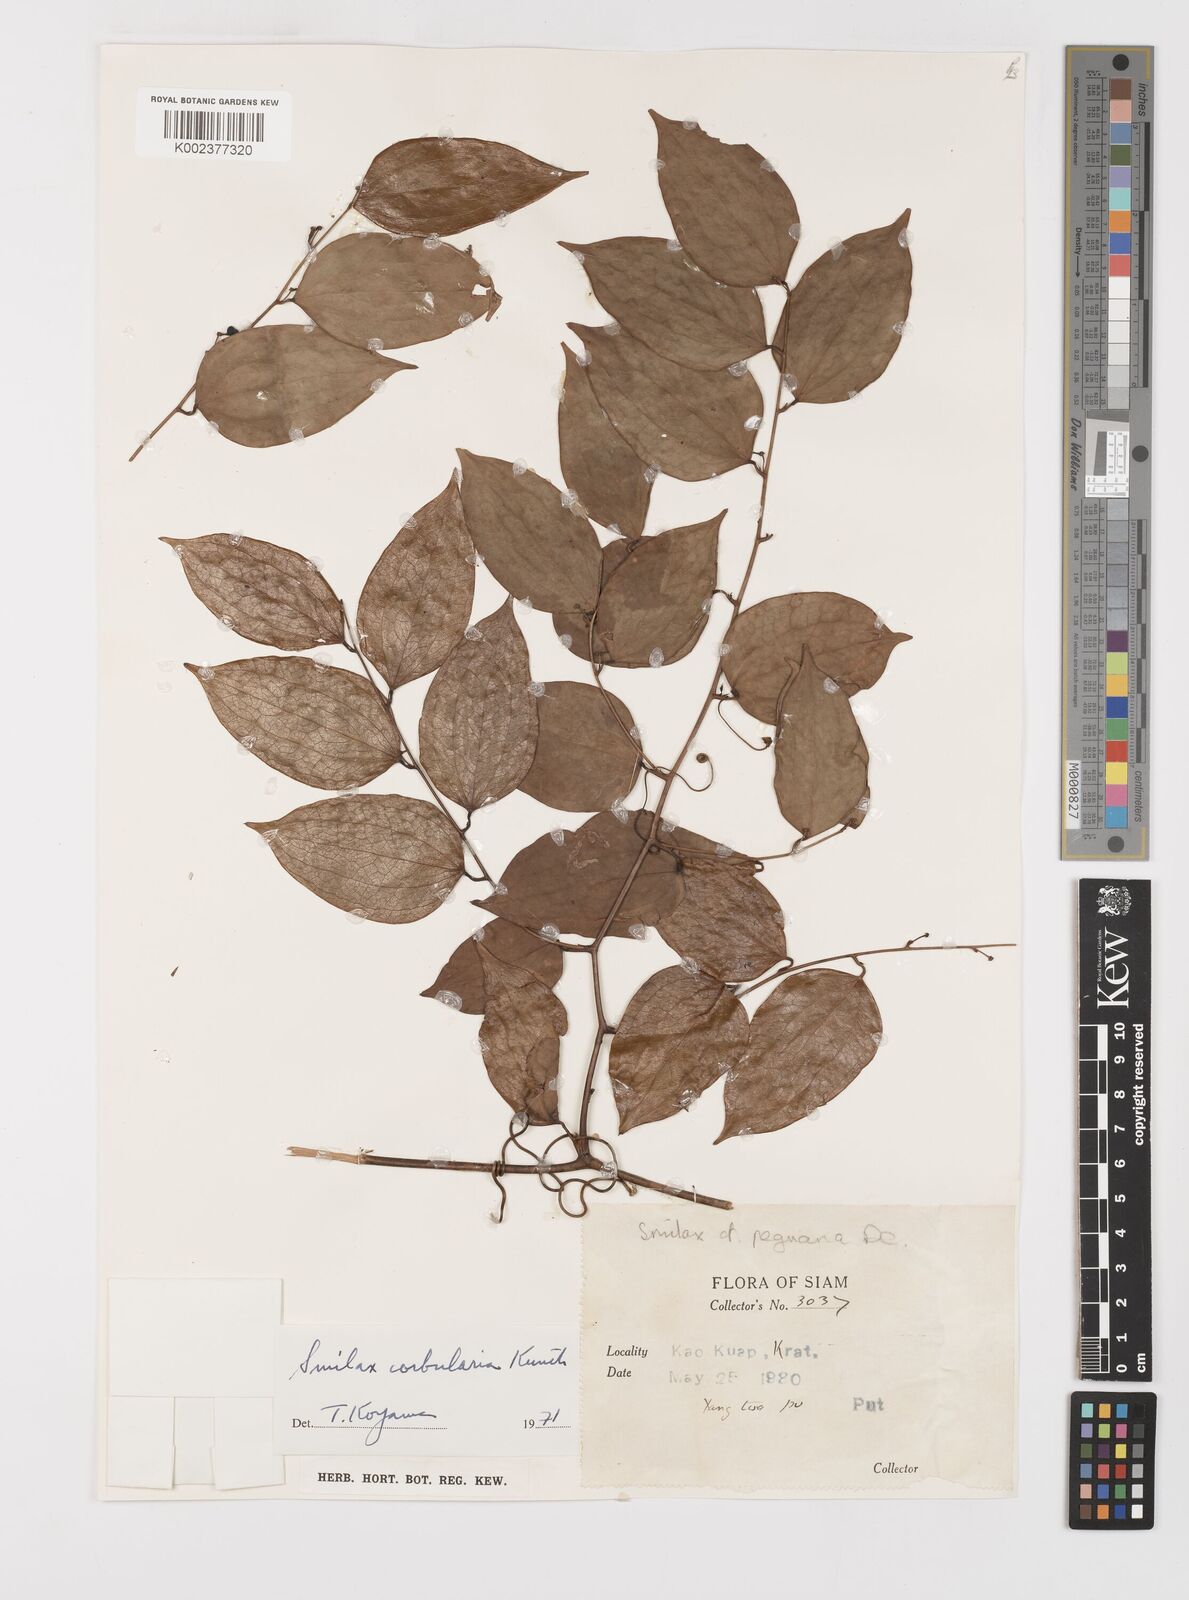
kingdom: Plantae
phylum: Tracheophyta
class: Liliopsida
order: Liliales
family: Smilacaceae
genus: Smilax
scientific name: Smilax corbularia
